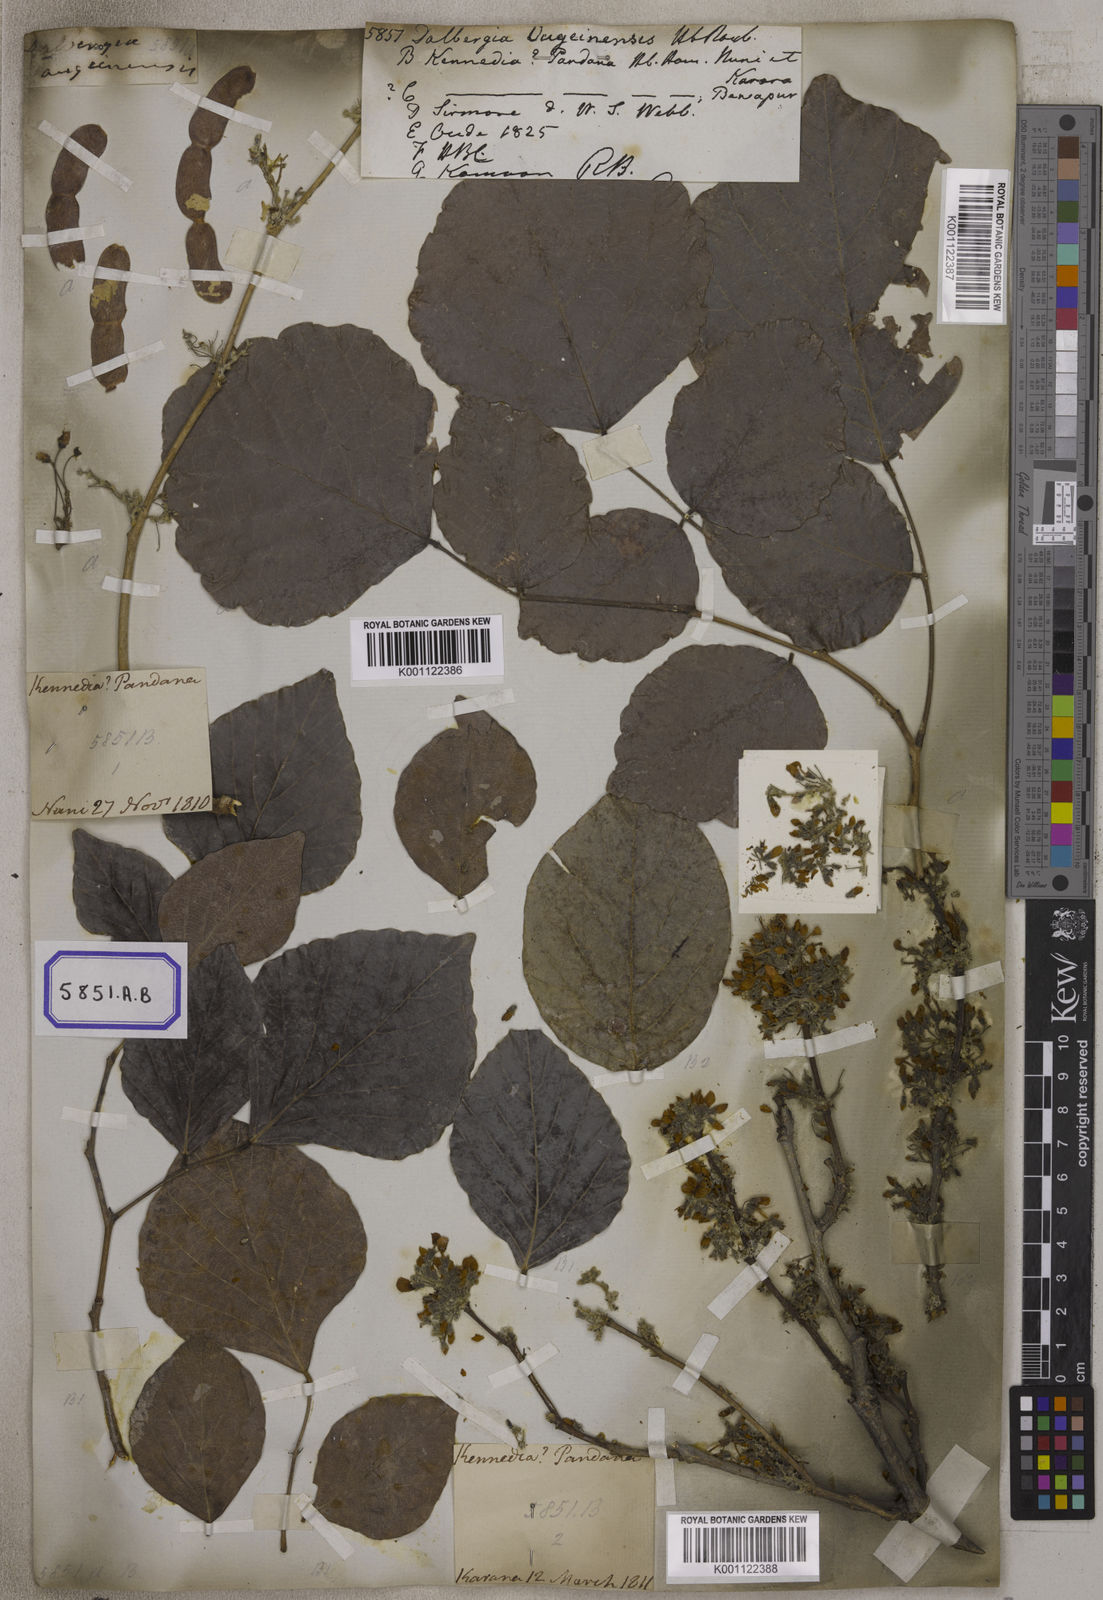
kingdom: Plantae
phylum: Tracheophyta
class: Magnoliopsida
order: Fabales
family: Fabaceae
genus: Ougeinia
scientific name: Ougeinia oojeinensis
